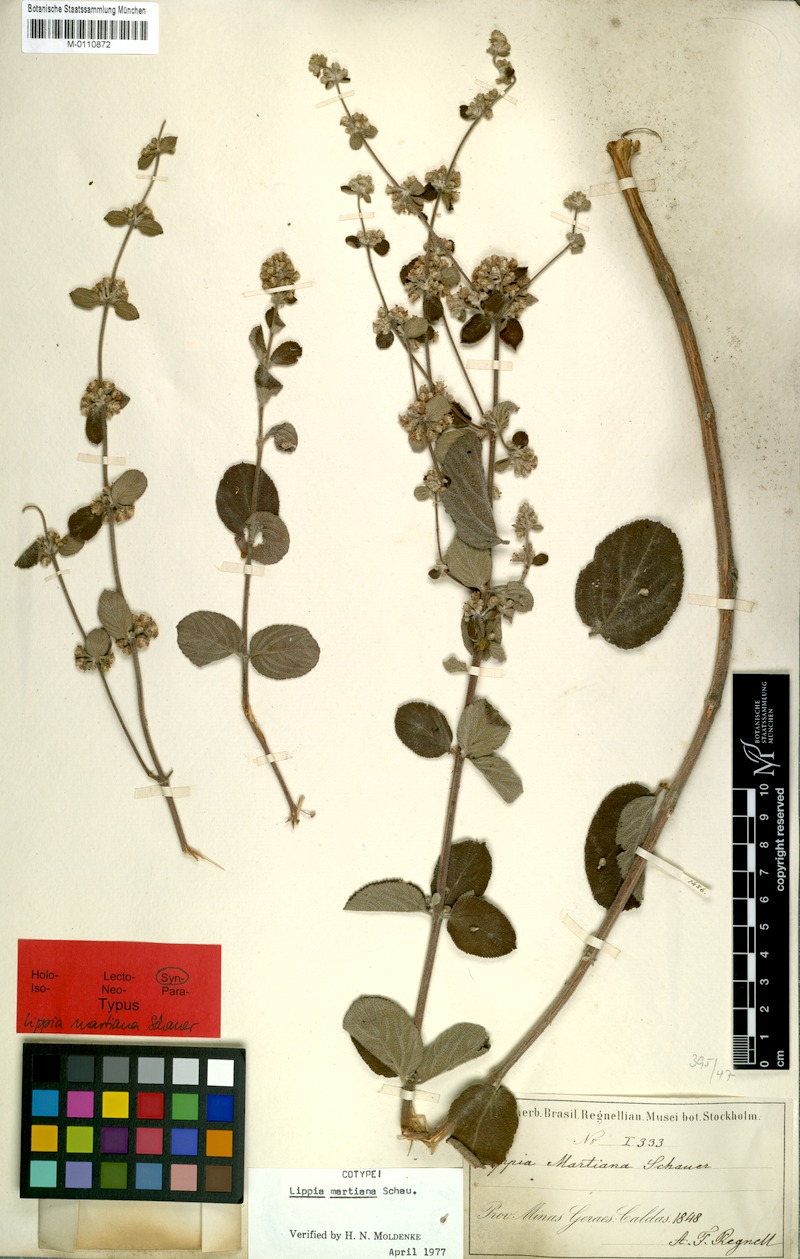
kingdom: Plantae
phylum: Tracheophyta
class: Magnoliopsida
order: Lamiales
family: Verbenaceae
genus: Lippia
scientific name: Lippia martiana
